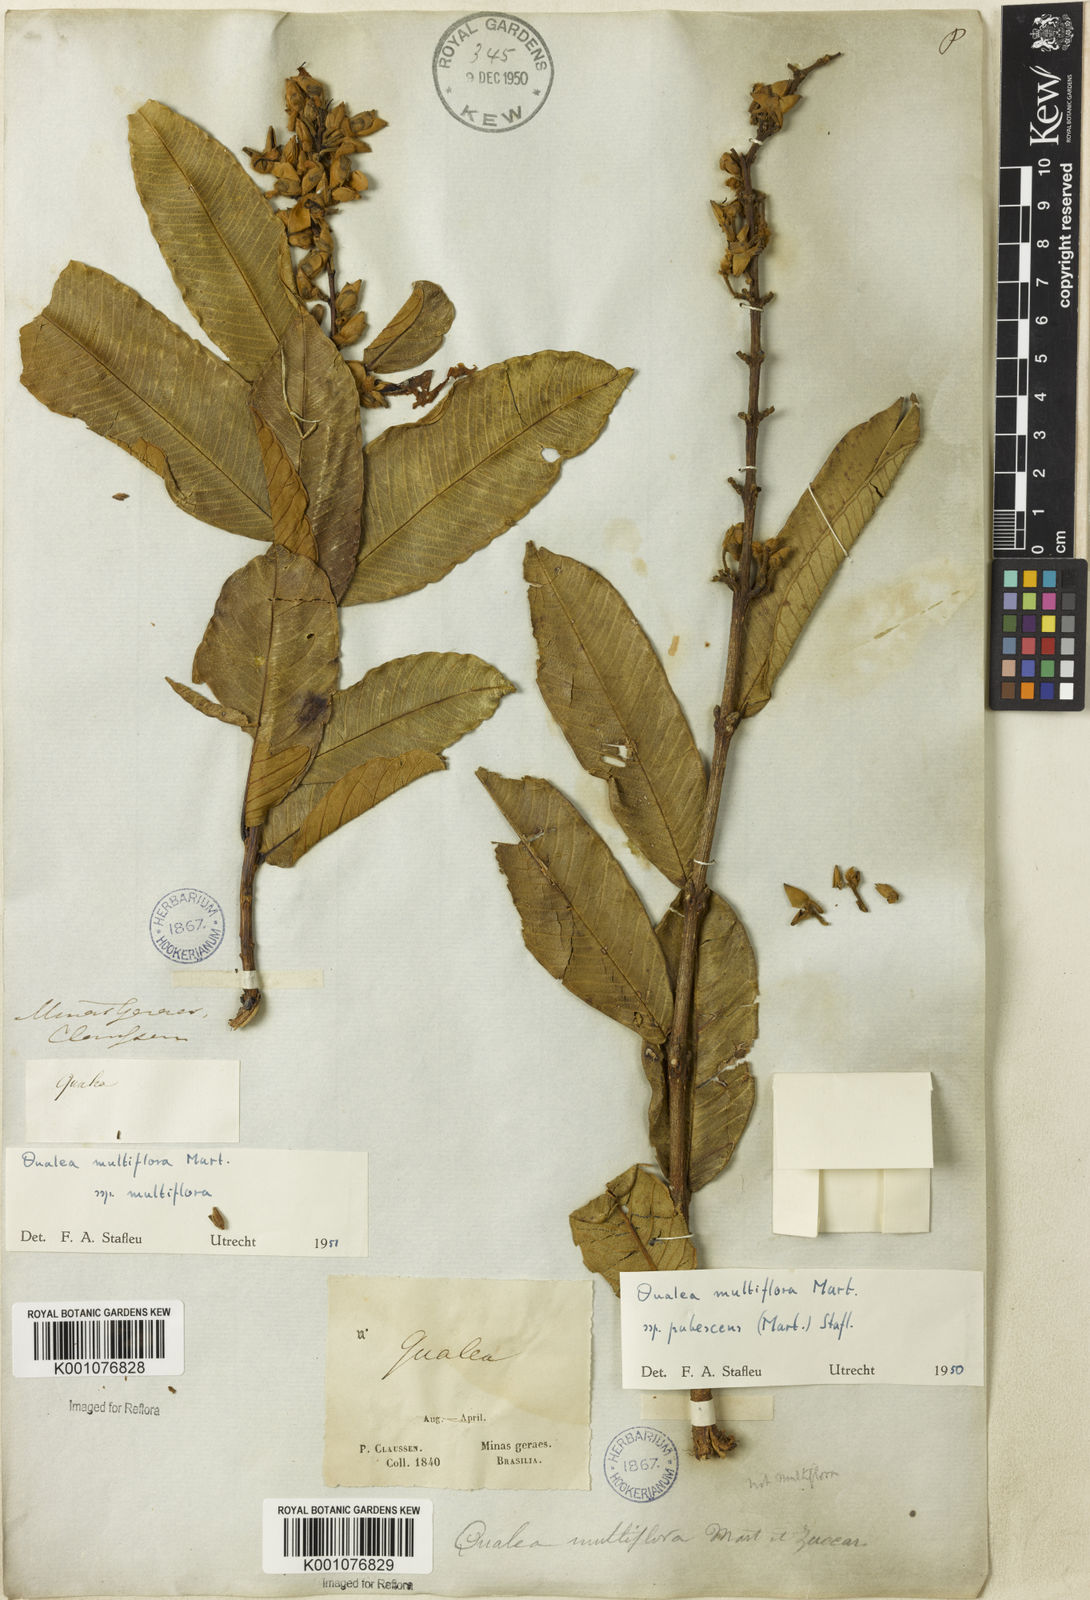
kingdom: Plantae
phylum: Tracheophyta
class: Magnoliopsida
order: Myrtales
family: Vochysiaceae
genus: Qualea
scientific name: Qualea multiflora
